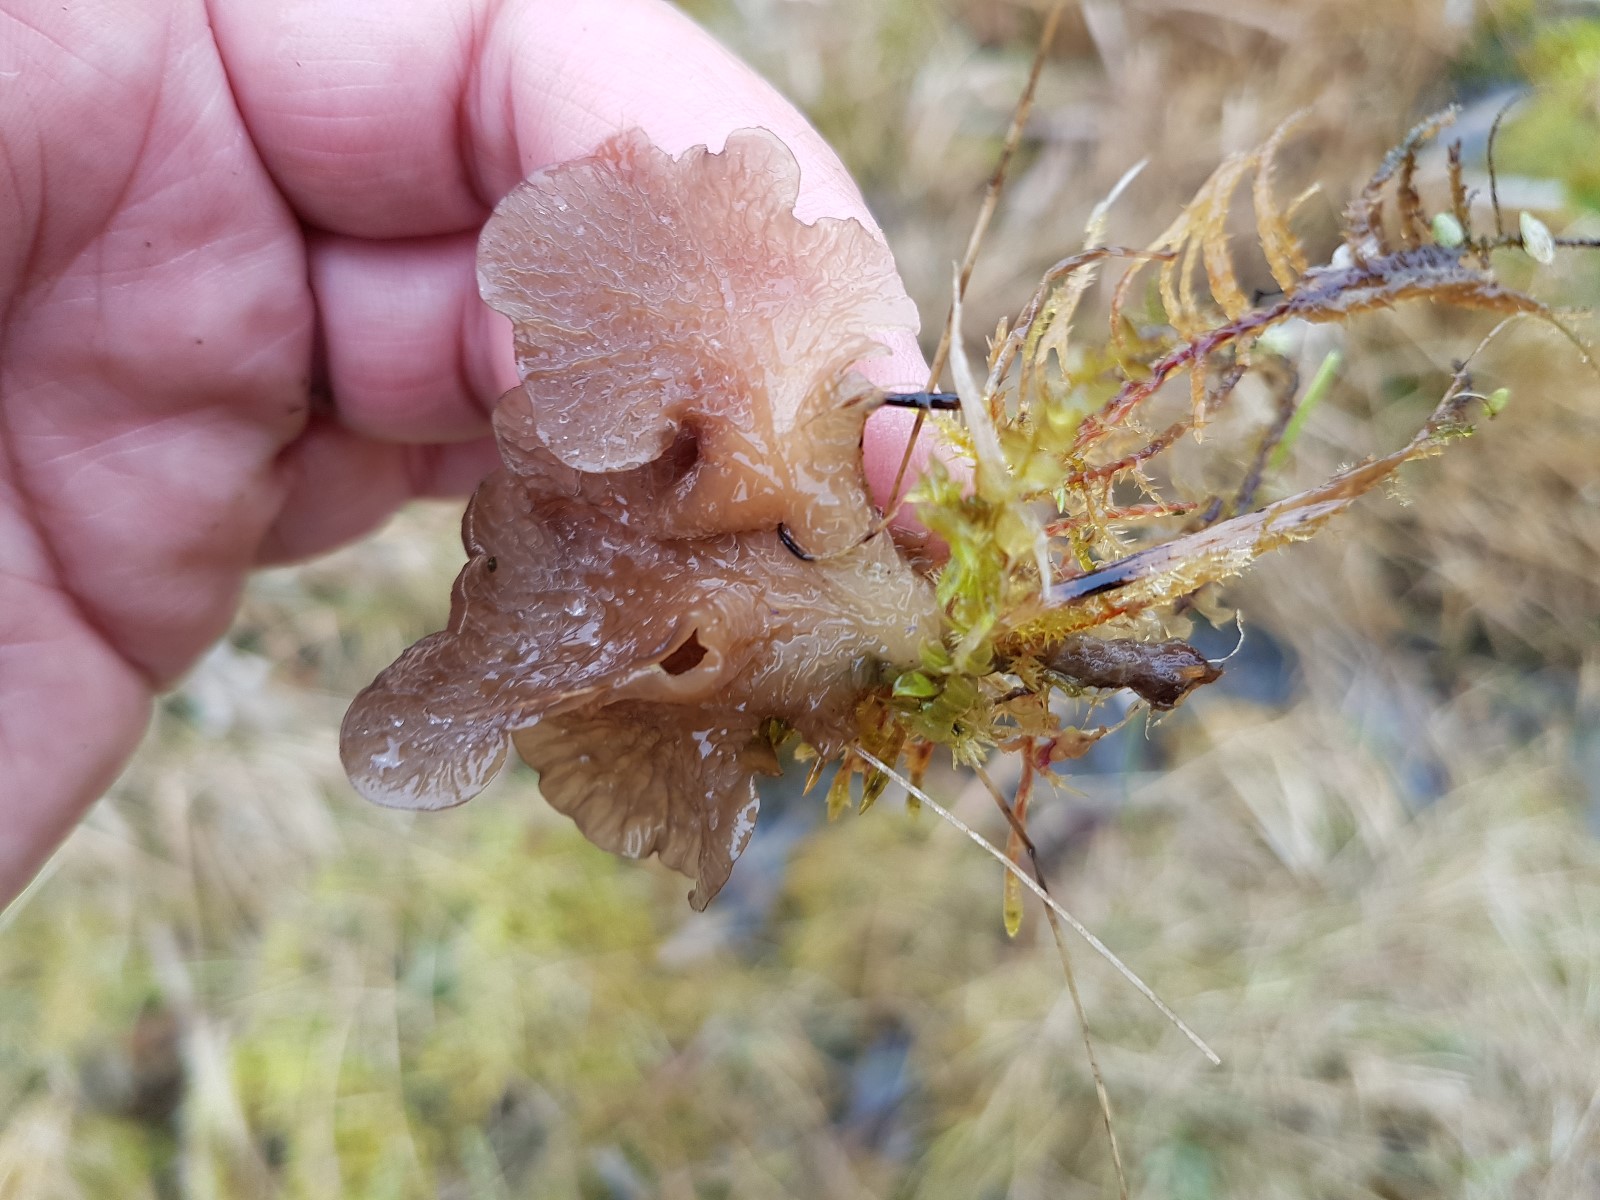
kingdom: Fungi
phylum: Basidiomycota
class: Agaricomycetes
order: Agaricales
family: Hygrophoraceae
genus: Arrhenia
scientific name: Arrhenia lobata
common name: siddende fontænehat
